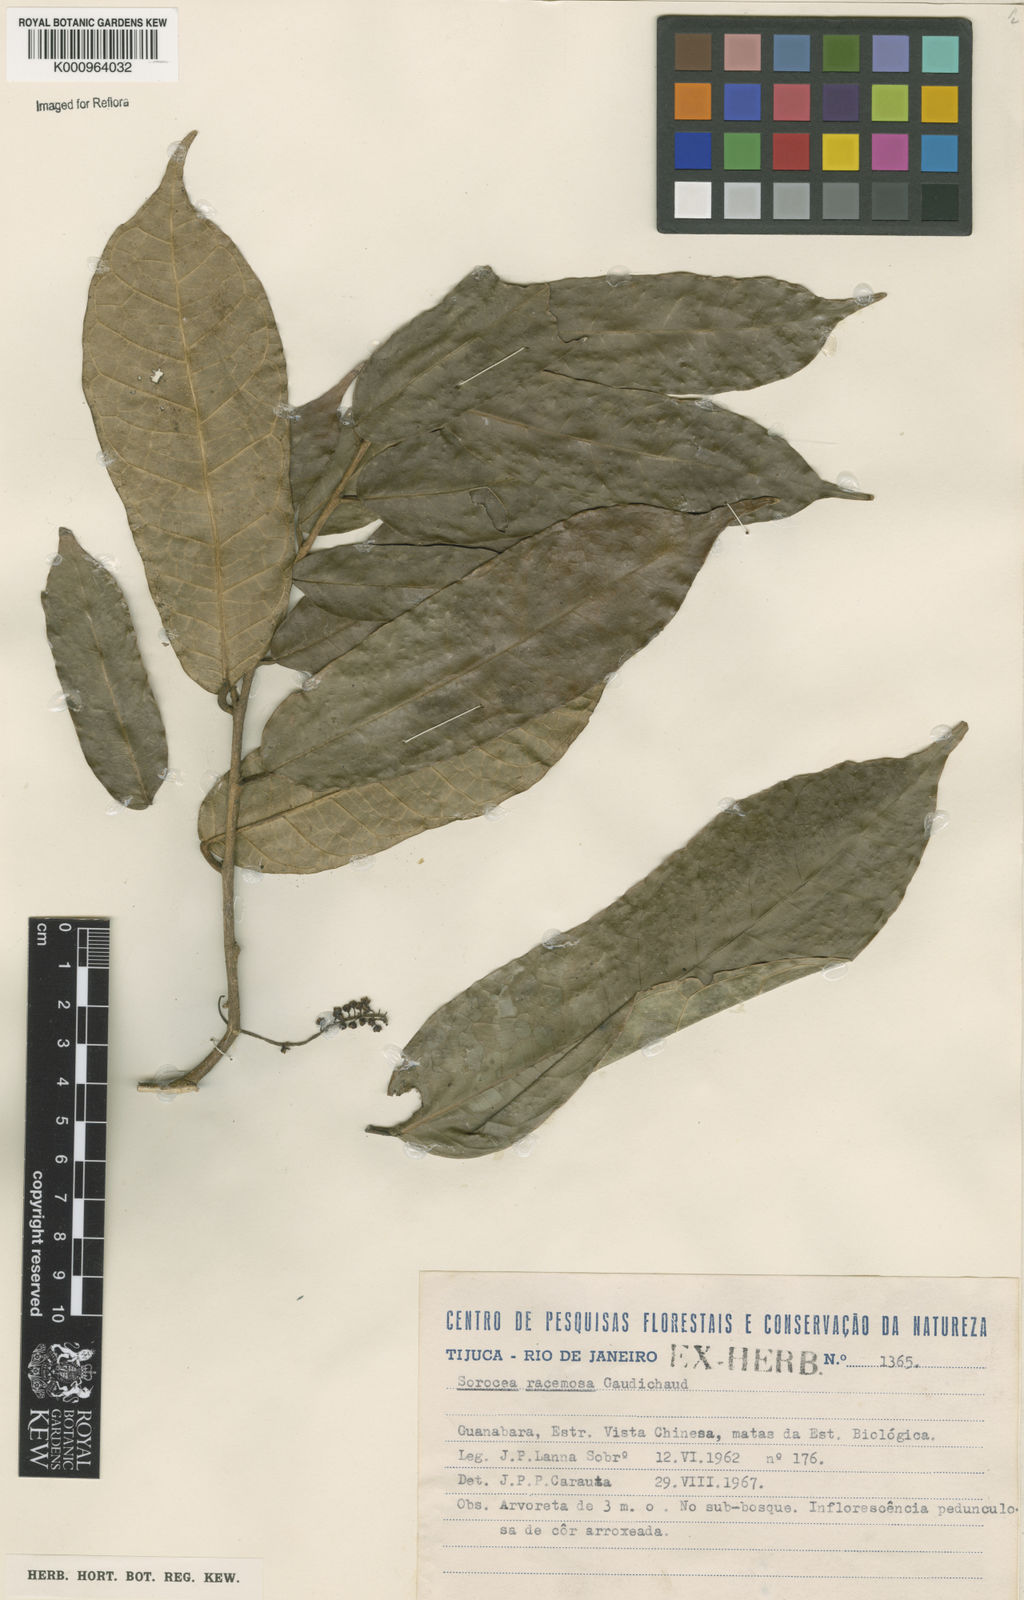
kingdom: Plantae
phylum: Tracheophyta
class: Magnoliopsida
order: Rosales
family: Moraceae
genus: Sorocea
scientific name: Sorocea hilarii
